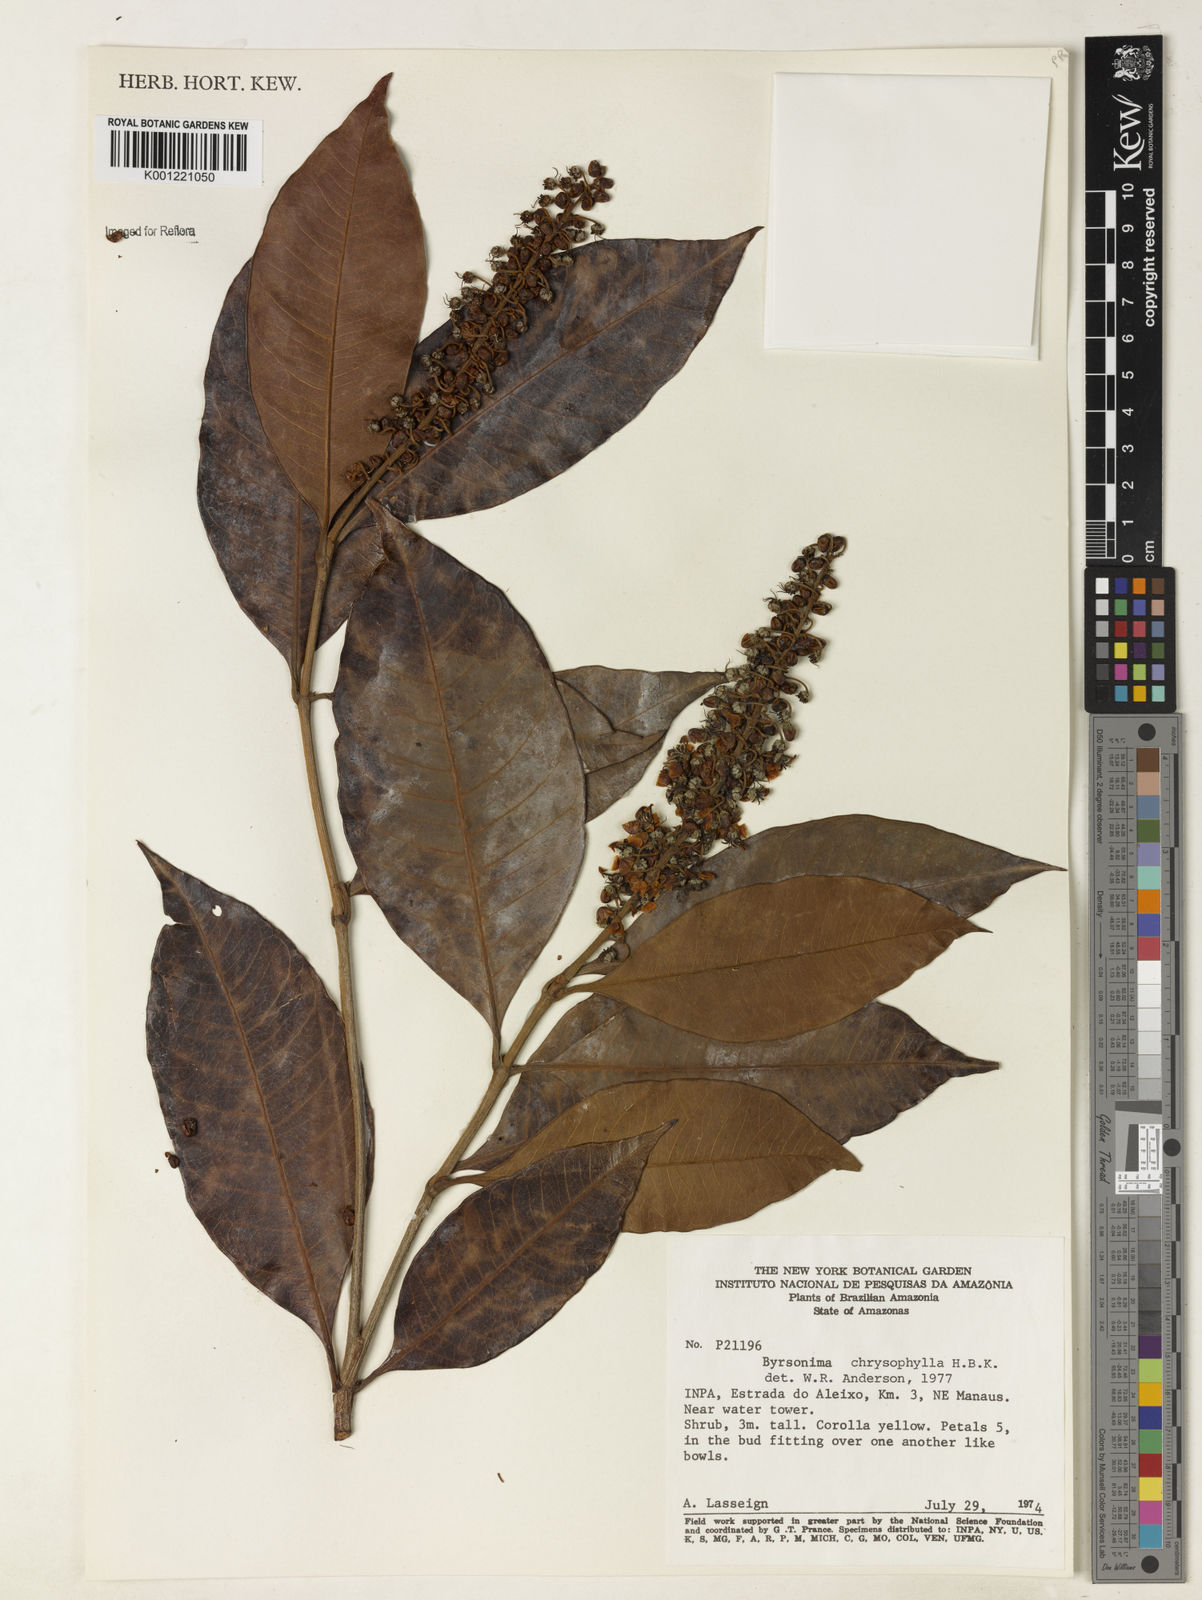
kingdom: Plantae
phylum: Tracheophyta
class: Magnoliopsida
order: Malpighiales
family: Malpighiaceae
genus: Byrsonima
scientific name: Byrsonima chrysophylla
